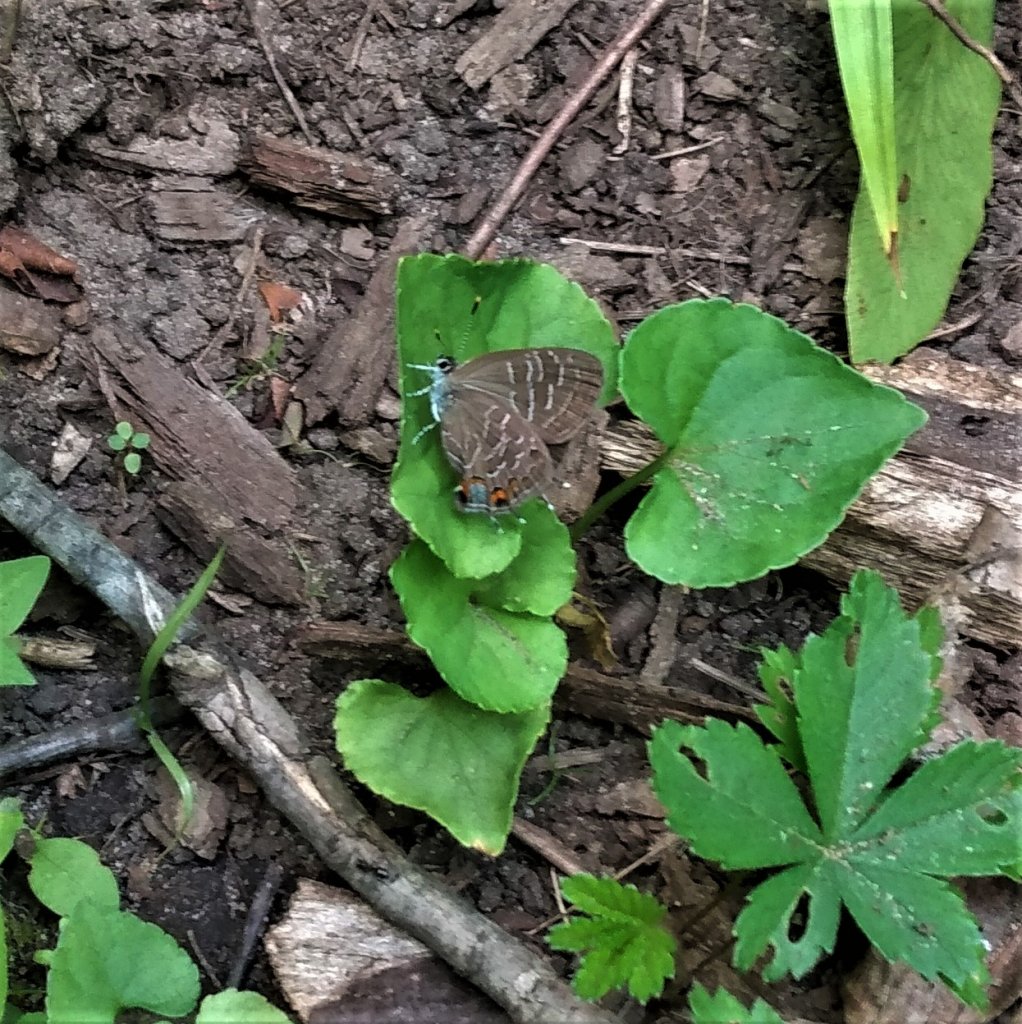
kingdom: Animalia
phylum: Arthropoda
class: Insecta
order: Lepidoptera
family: Lycaenidae
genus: Satyrium
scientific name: Satyrium liparops
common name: Striped Hairstreak
